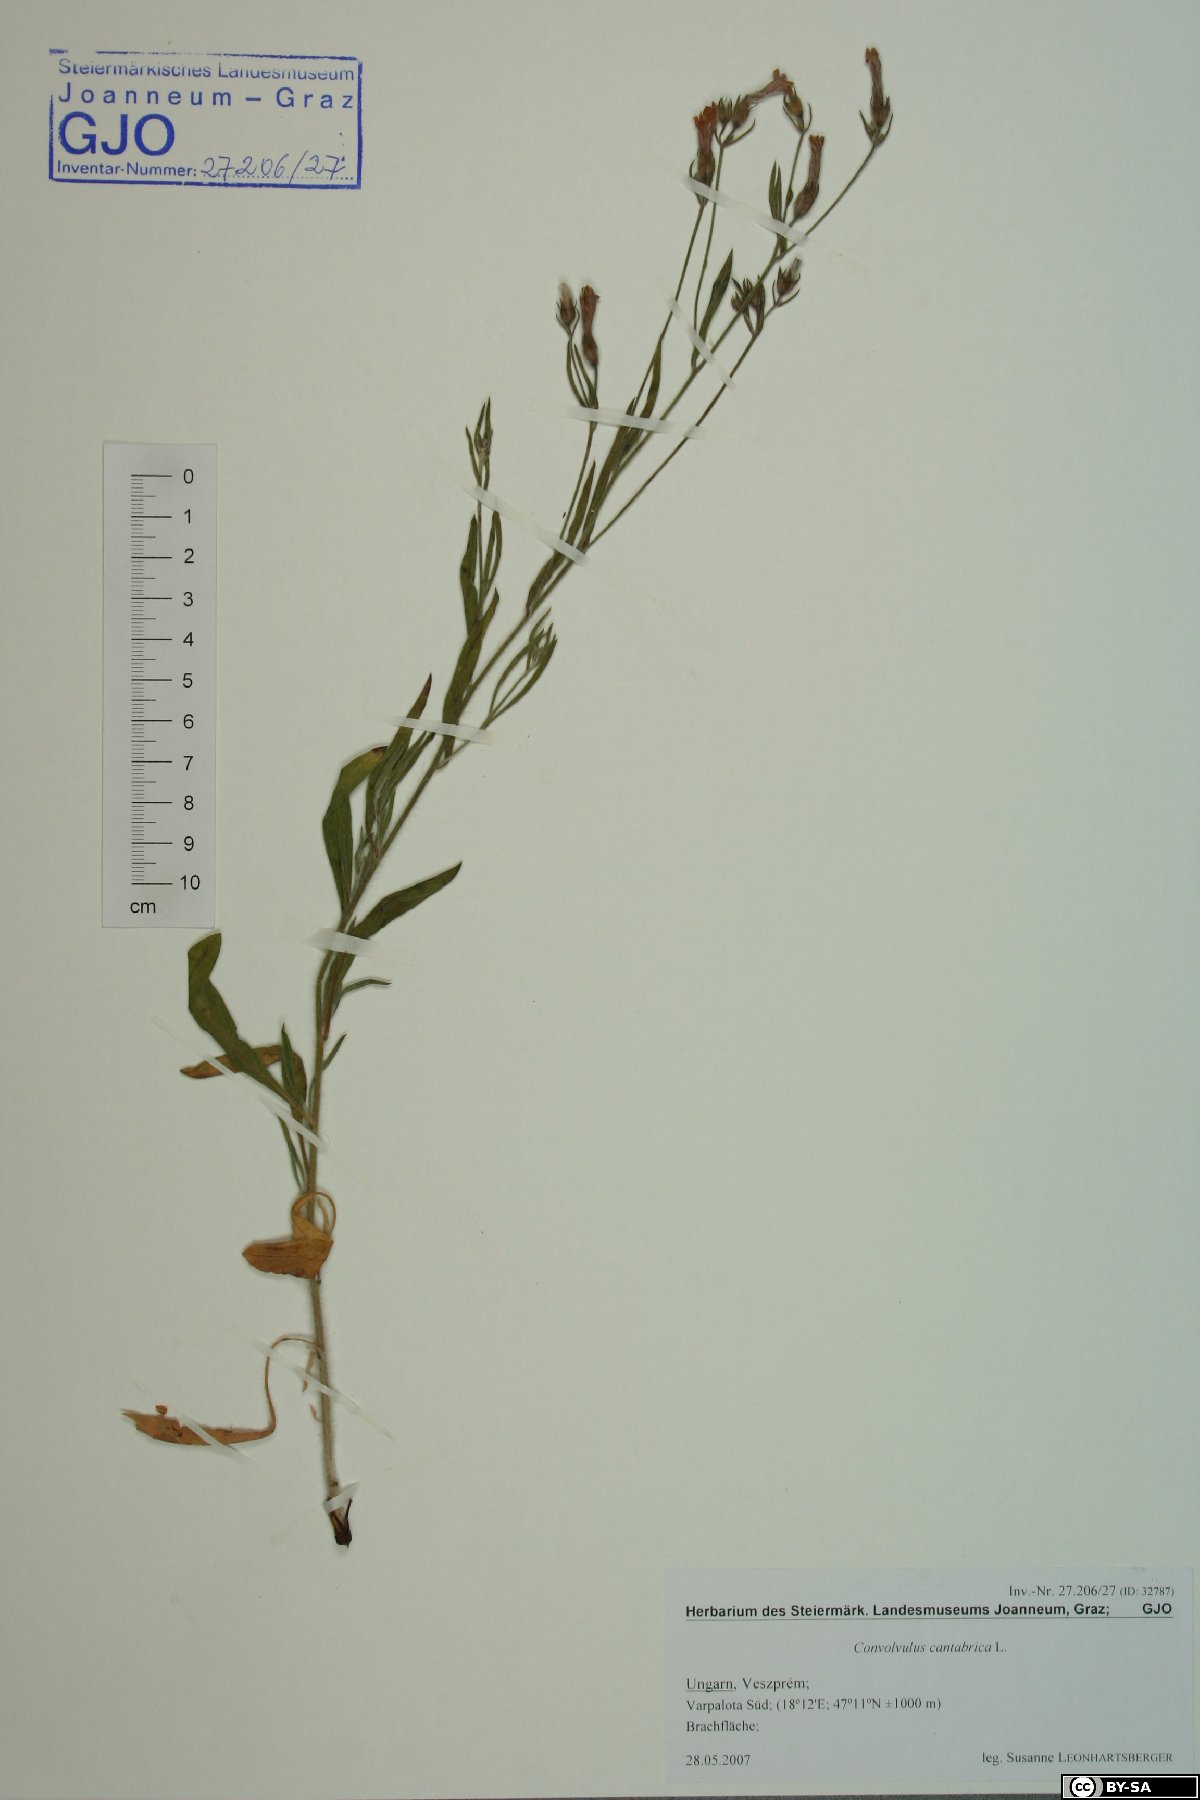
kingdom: Plantae
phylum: Tracheophyta
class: Magnoliopsida
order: Solanales
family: Convolvulaceae
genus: Convolvulus
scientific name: Convolvulus cantabrica
